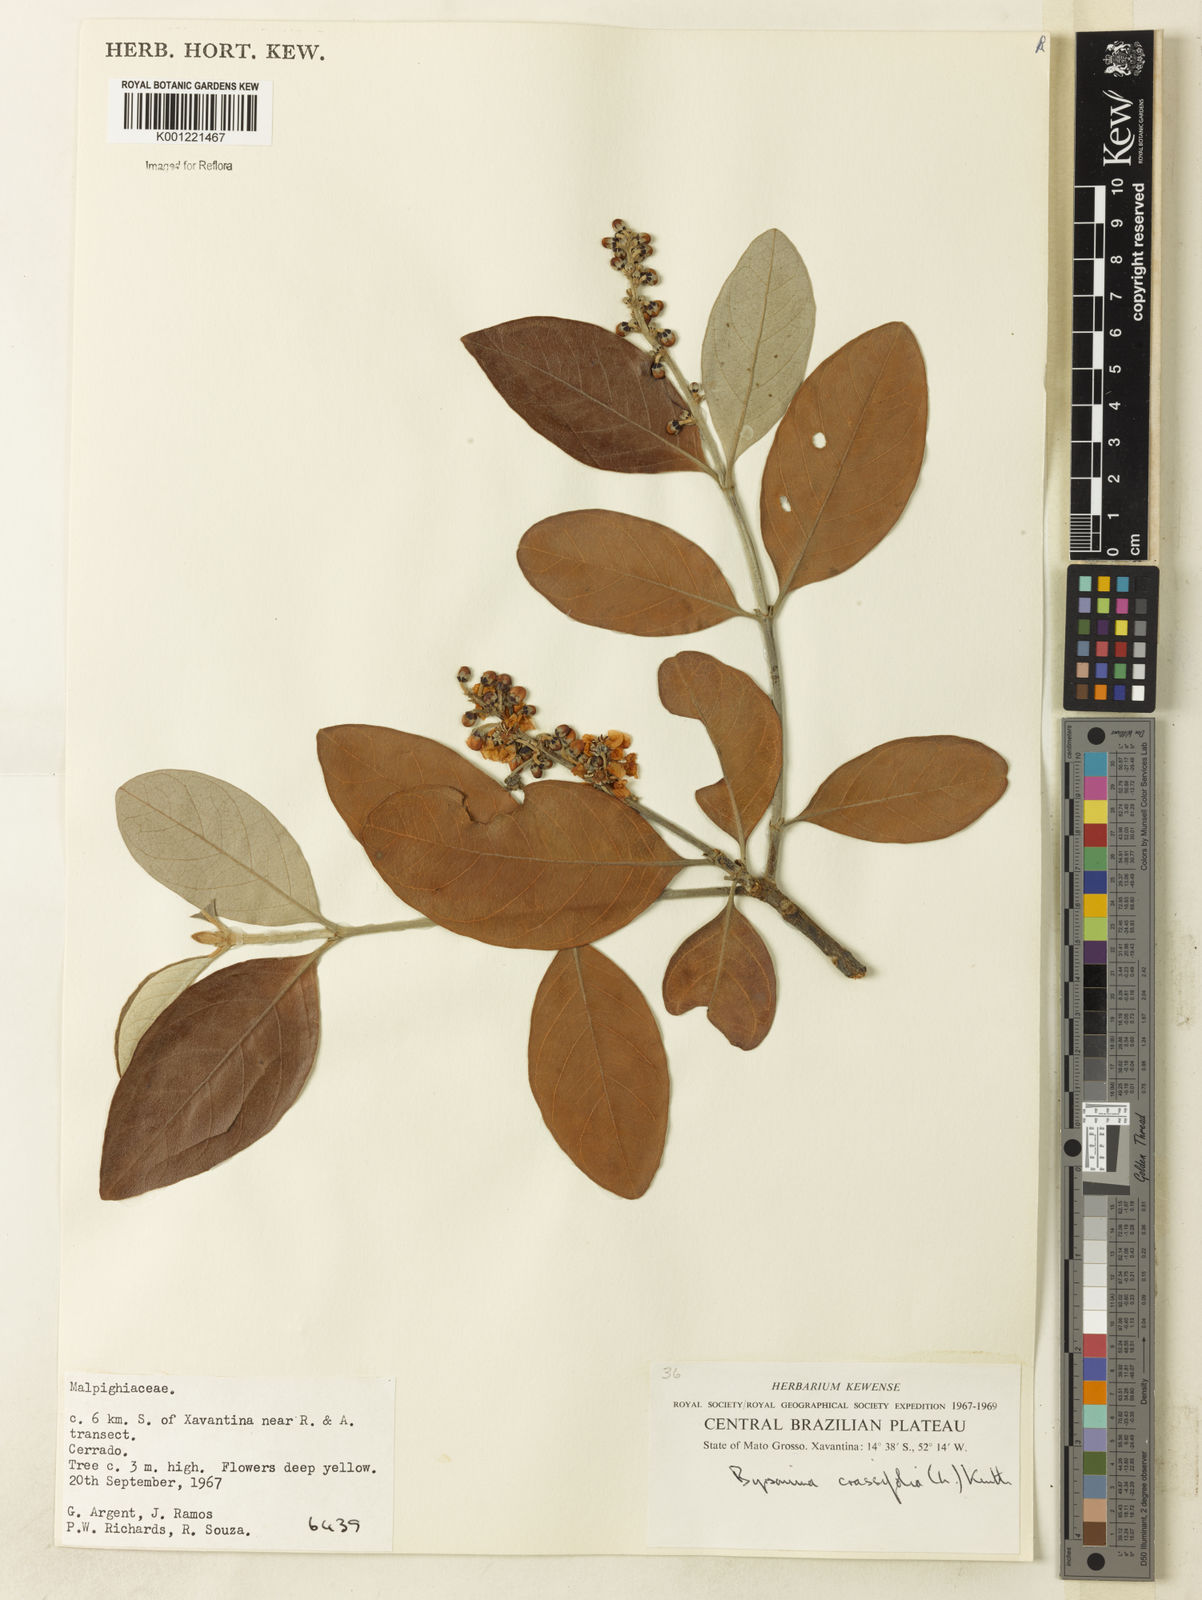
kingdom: Plantae
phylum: Tracheophyta
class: Magnoliopsida
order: Malpighiales
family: Malpighiaceae
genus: Byrsonima
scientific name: Byrsonima cydoniifolia
